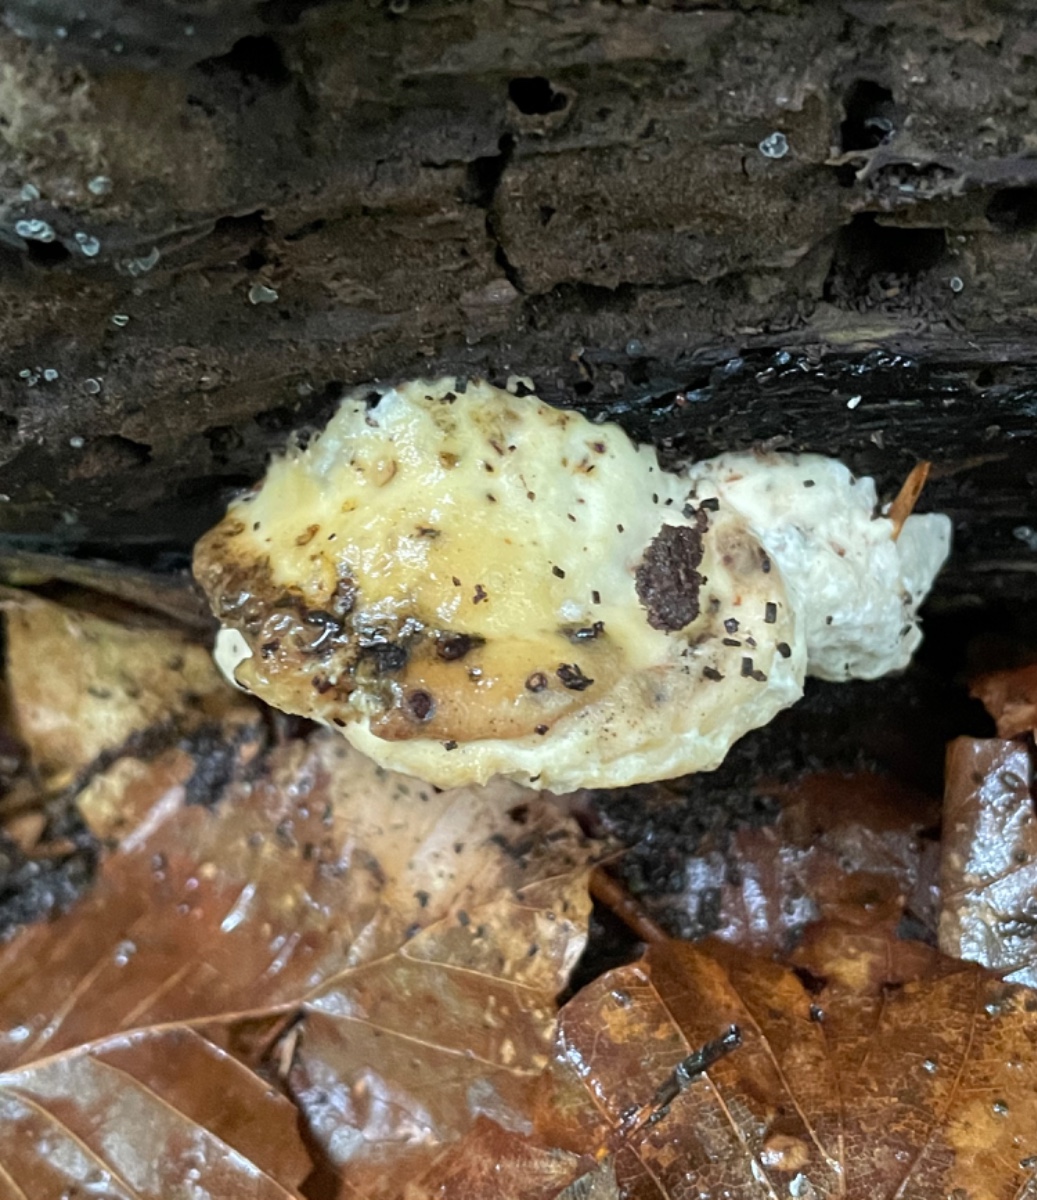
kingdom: Fungi
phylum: Basidiomycota
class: Agaricomycetes
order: Polyporales
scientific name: Polyporales
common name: poresvampordenen
